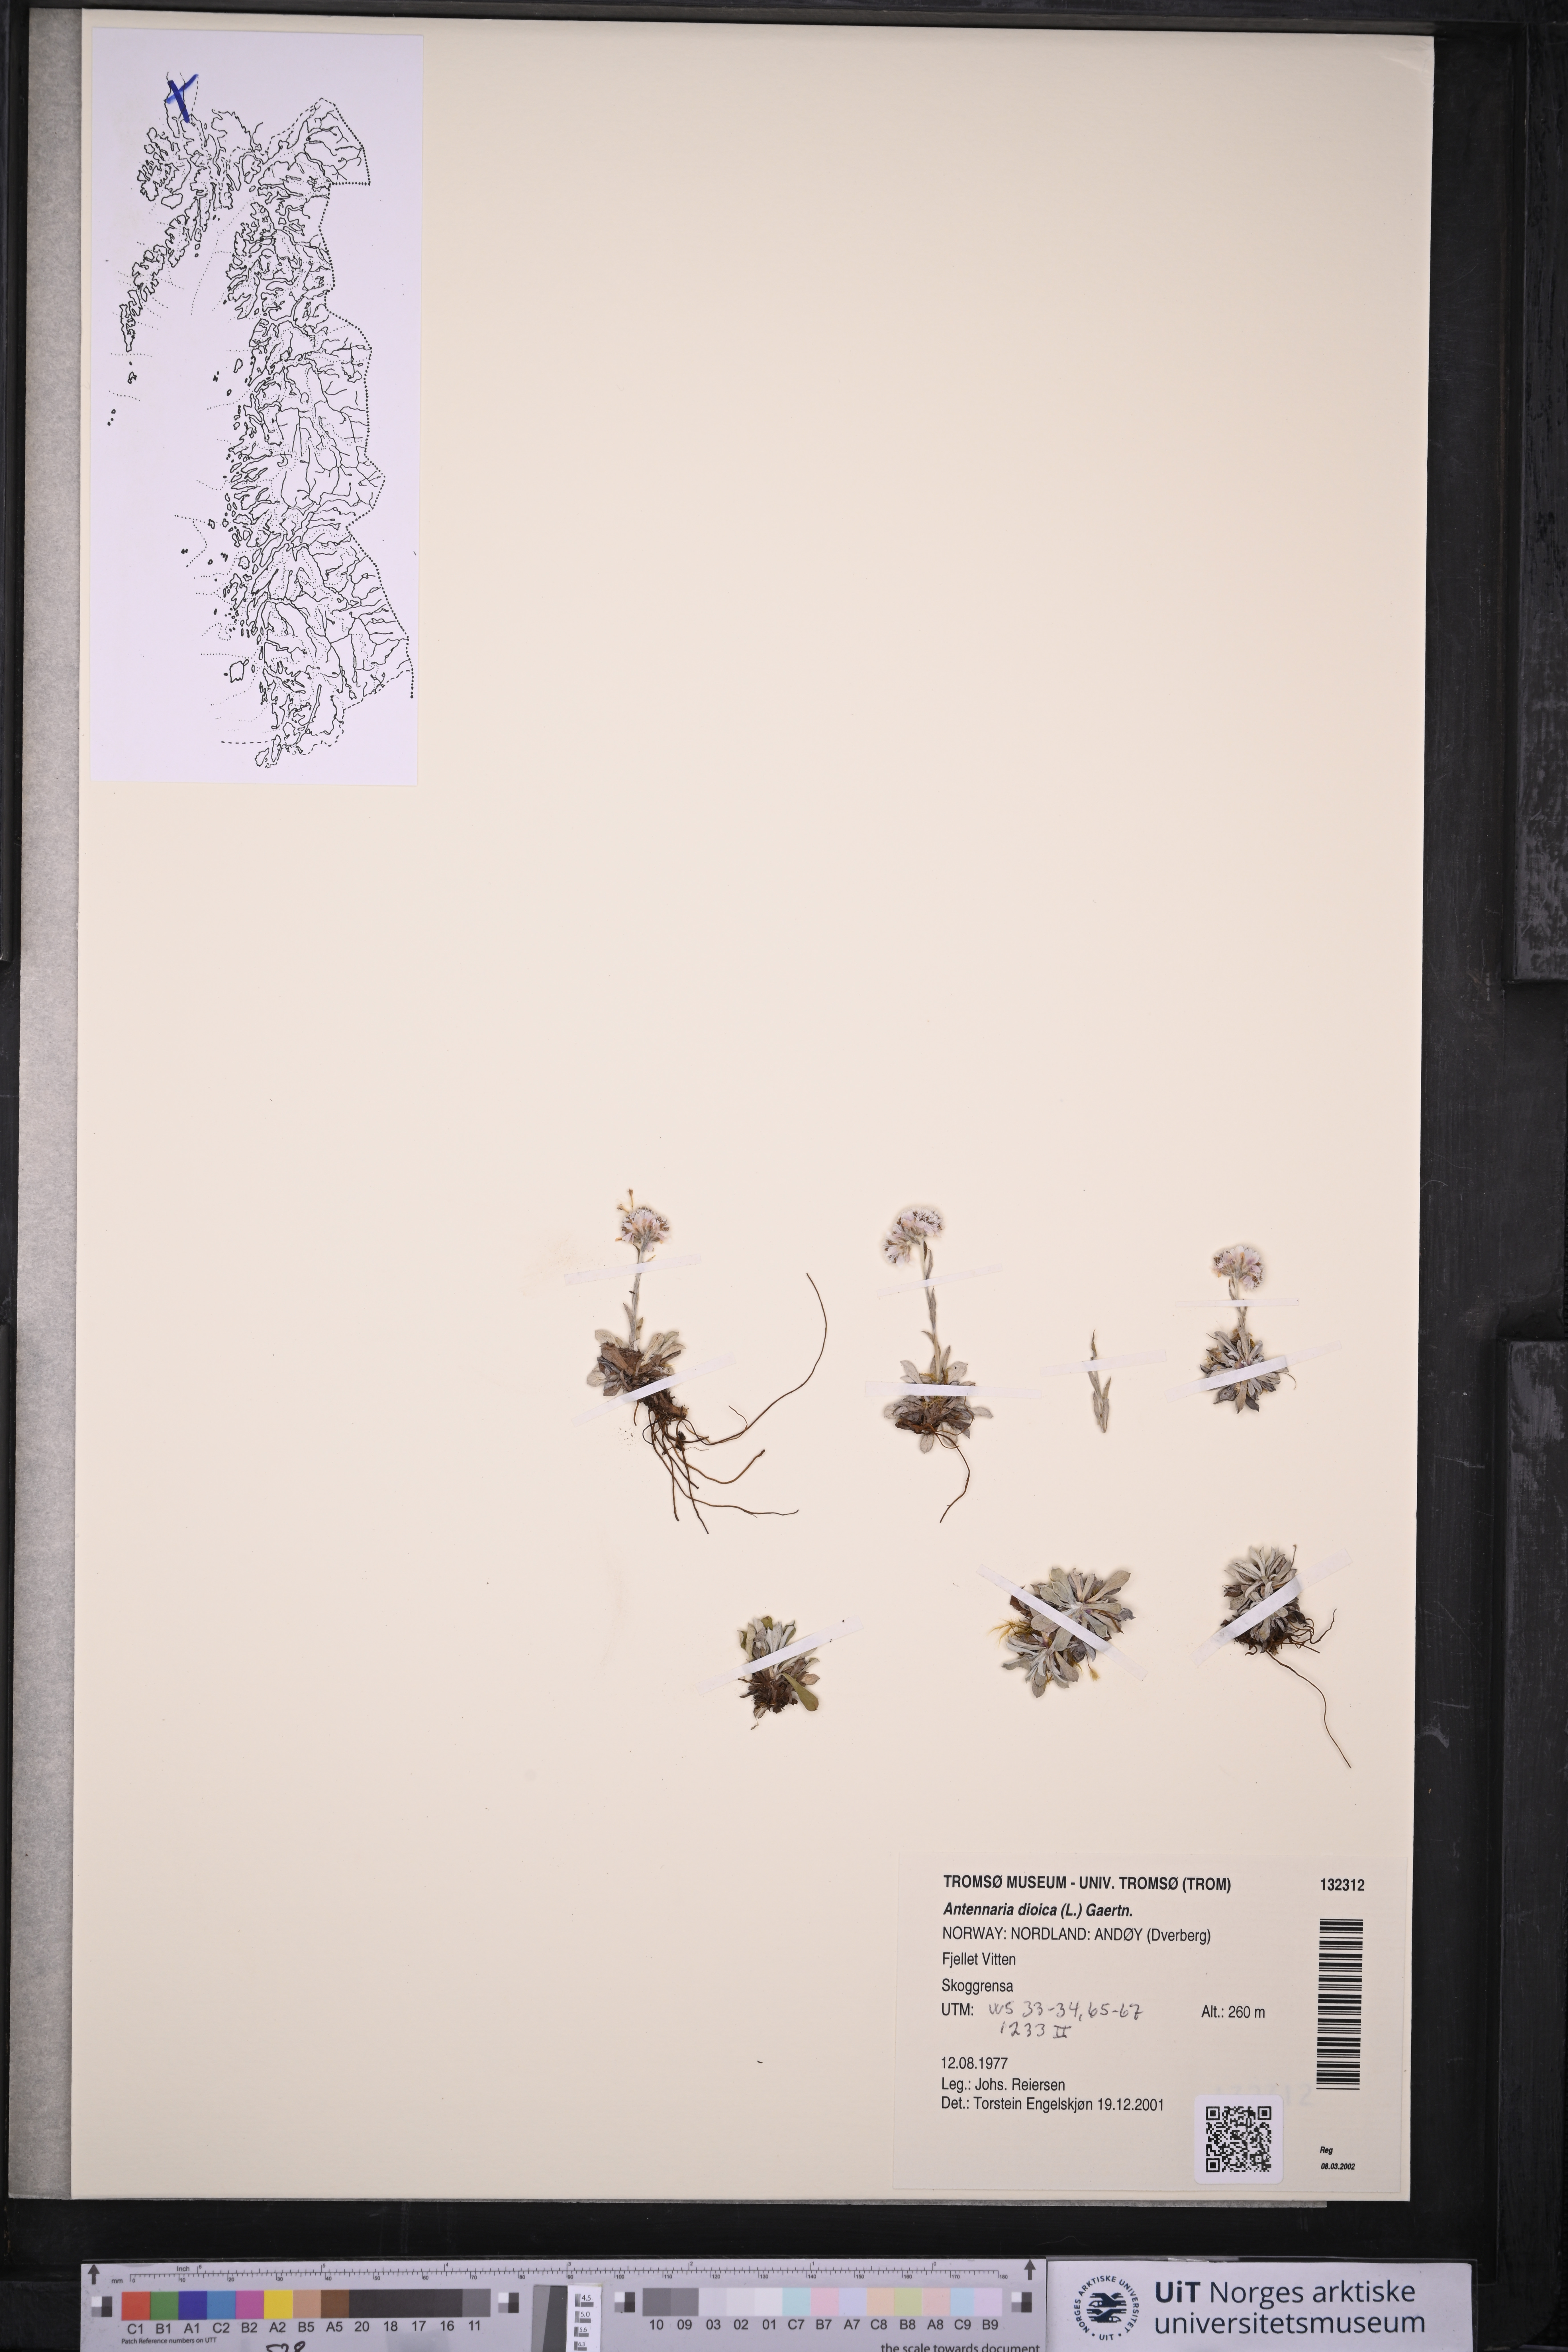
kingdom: Plantae
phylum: Tracheophyta
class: Magnoliopsida
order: Asterales
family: Asteraceae
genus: Antennaria
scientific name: Antennaria dioica
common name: Mountain everlasting
